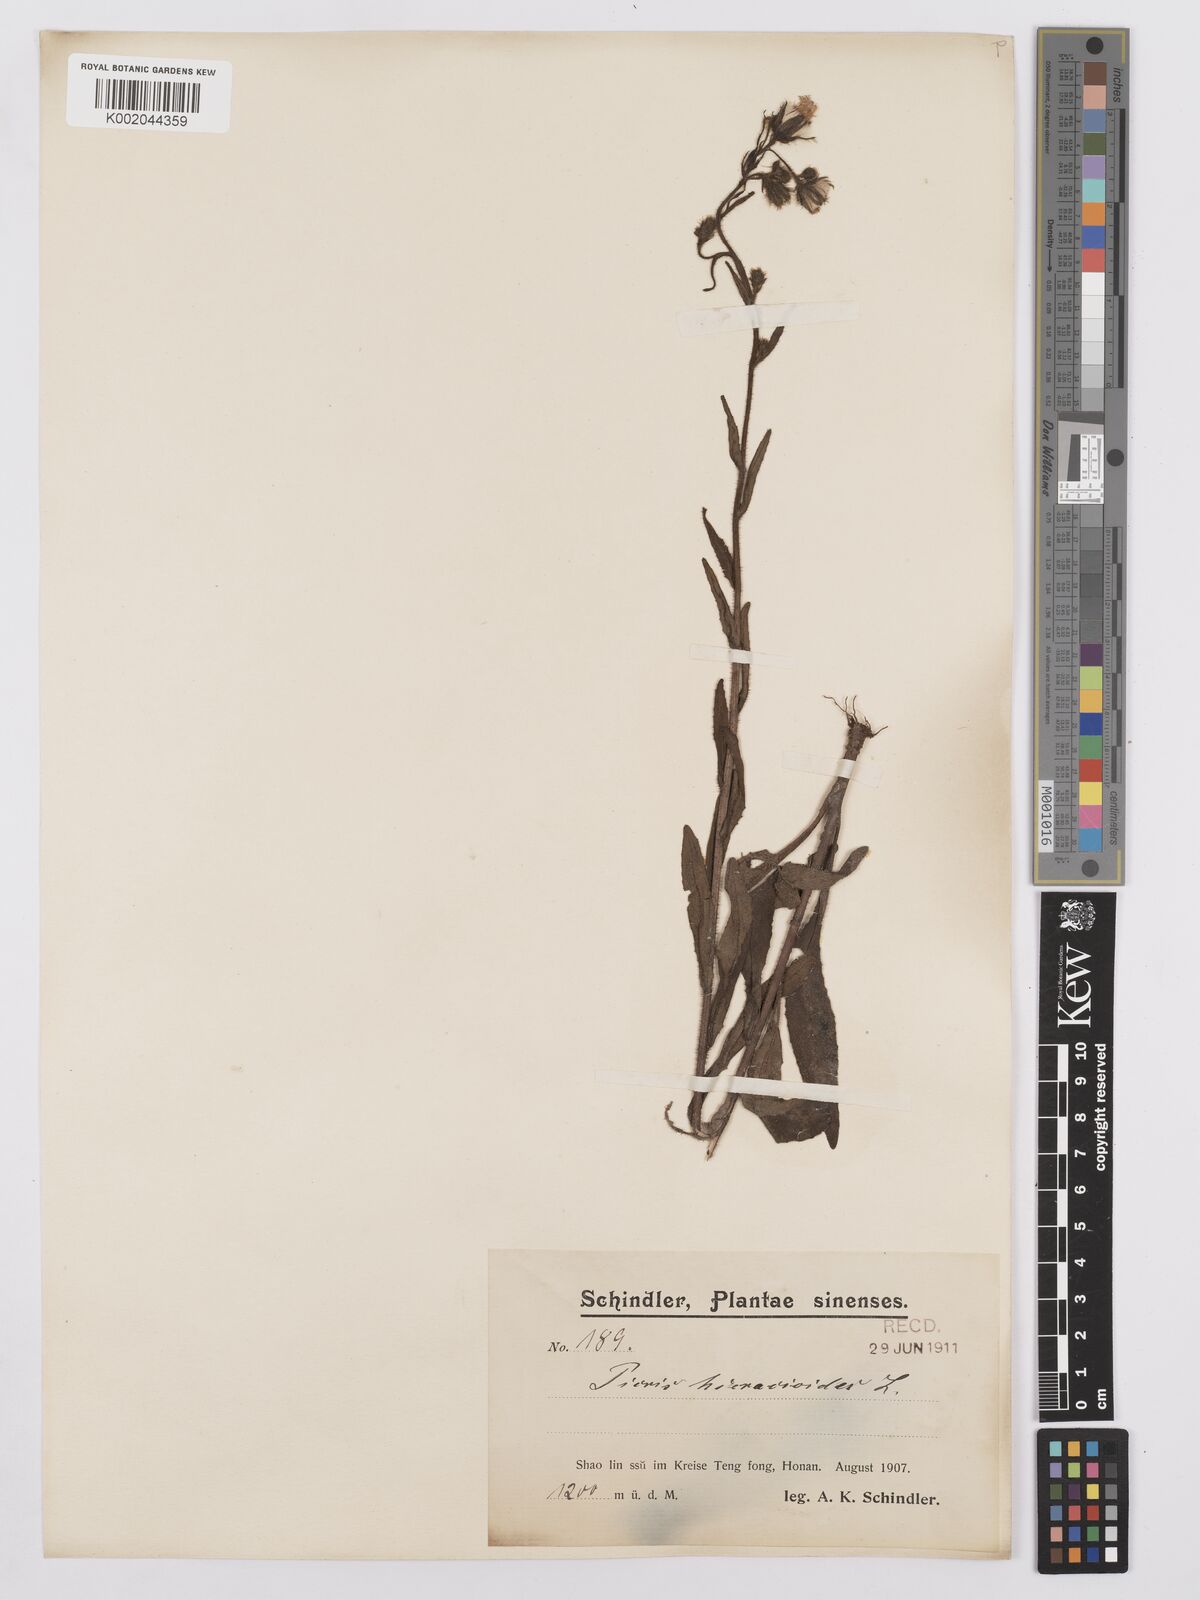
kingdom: Plantae
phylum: Tracheophyta
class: Magnoliopsida
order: Asterales
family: Asteraceae
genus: Picris
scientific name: Picris hieracioides
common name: Hawkweed oxtongue
